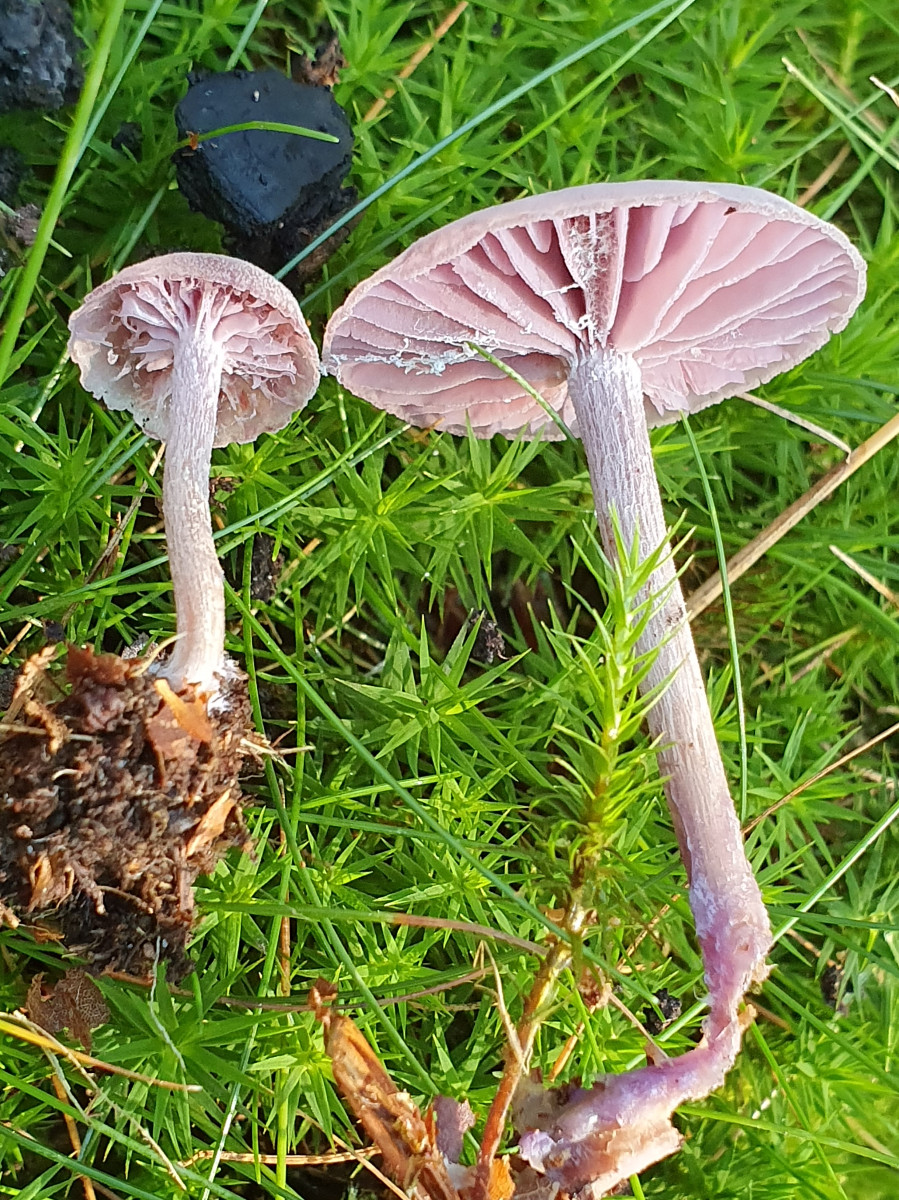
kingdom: Fungi
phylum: Basidiomycota
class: Agaricomycetes
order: Agaricales
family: Hydnangiaceae
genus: Laccaria
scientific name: Laccaria amethystina
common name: violet ametysthat
